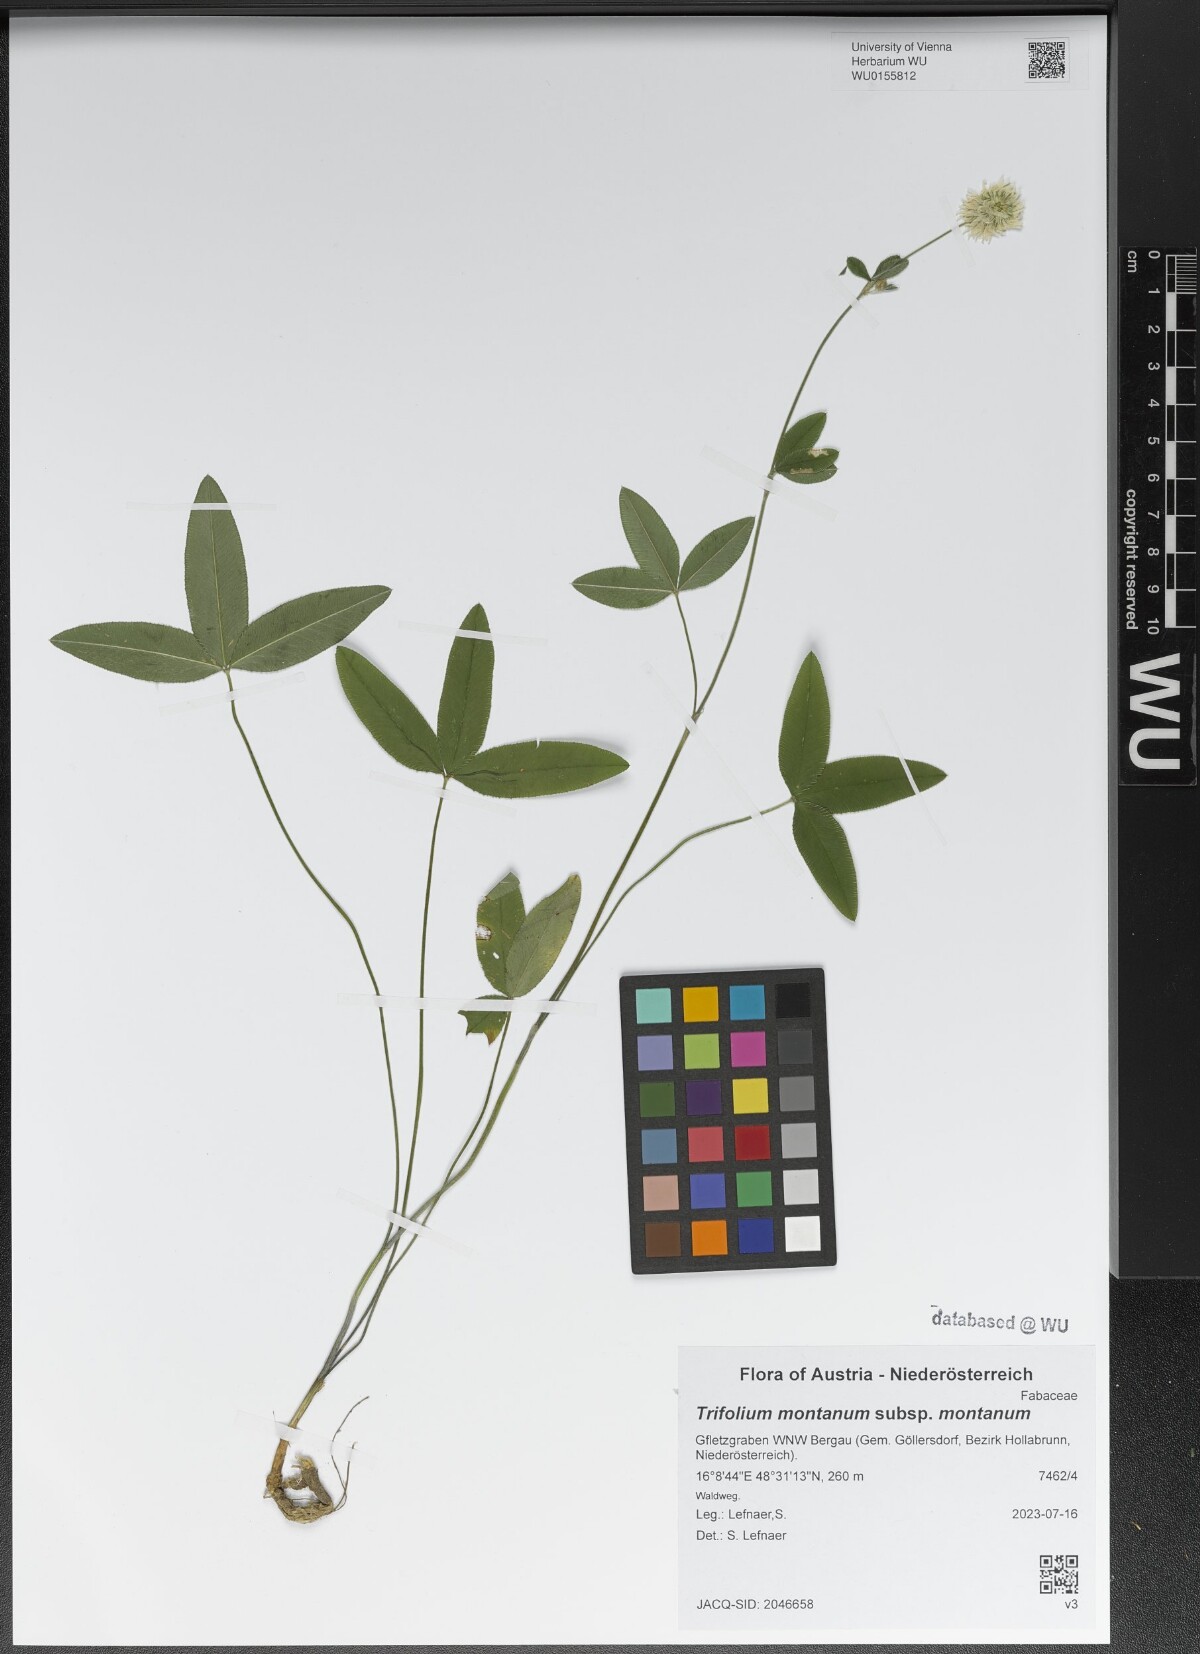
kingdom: Plantae
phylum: Tracheophyta
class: Magnoliopsida
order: Fabales
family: Fabaceae
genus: Trifolium
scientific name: Trifolium montanum
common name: Mountain clover
